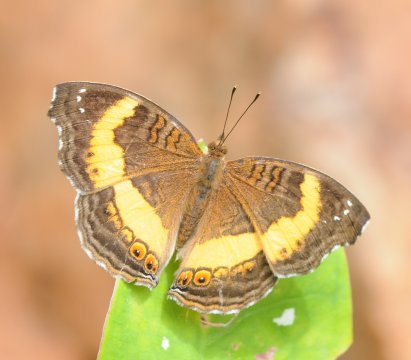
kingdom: Animalia
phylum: Arthropoda
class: Insecta
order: Lepidoptera
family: Nymphalidae
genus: Junonia
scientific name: Junonia terea
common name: Soldier Pansy
